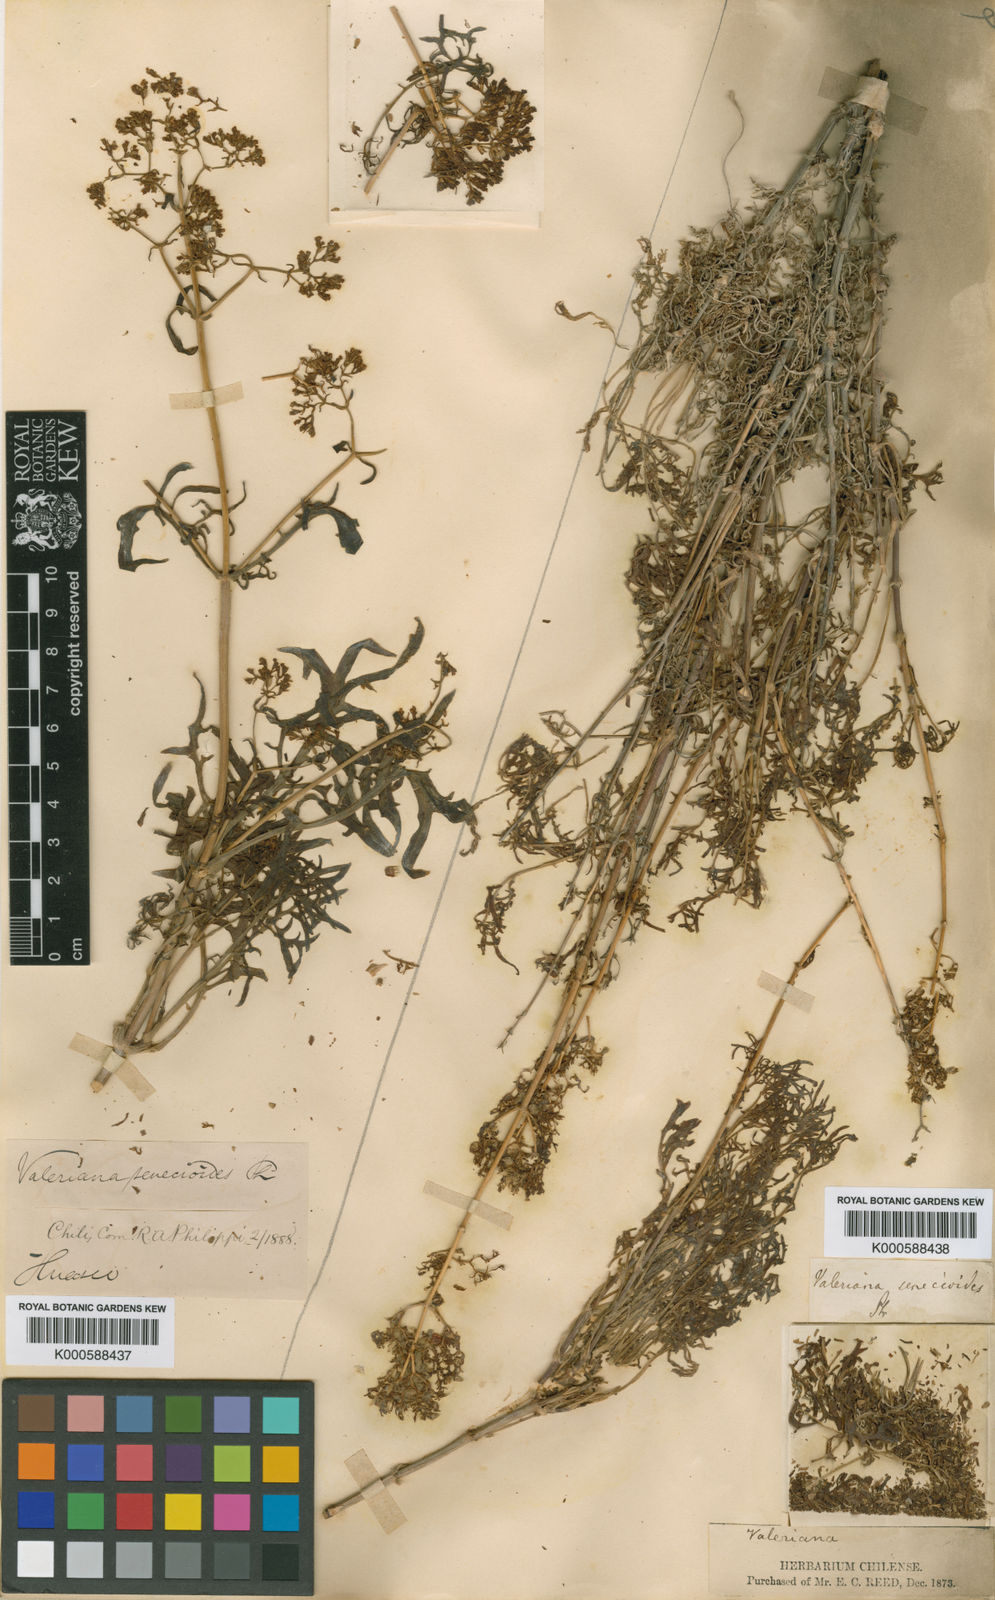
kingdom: Plantae
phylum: Tracheophyta
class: Magnoliopsida
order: Dipsacales
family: Caprifoliaceae
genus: Valeriana
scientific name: Valeriana senecioides
